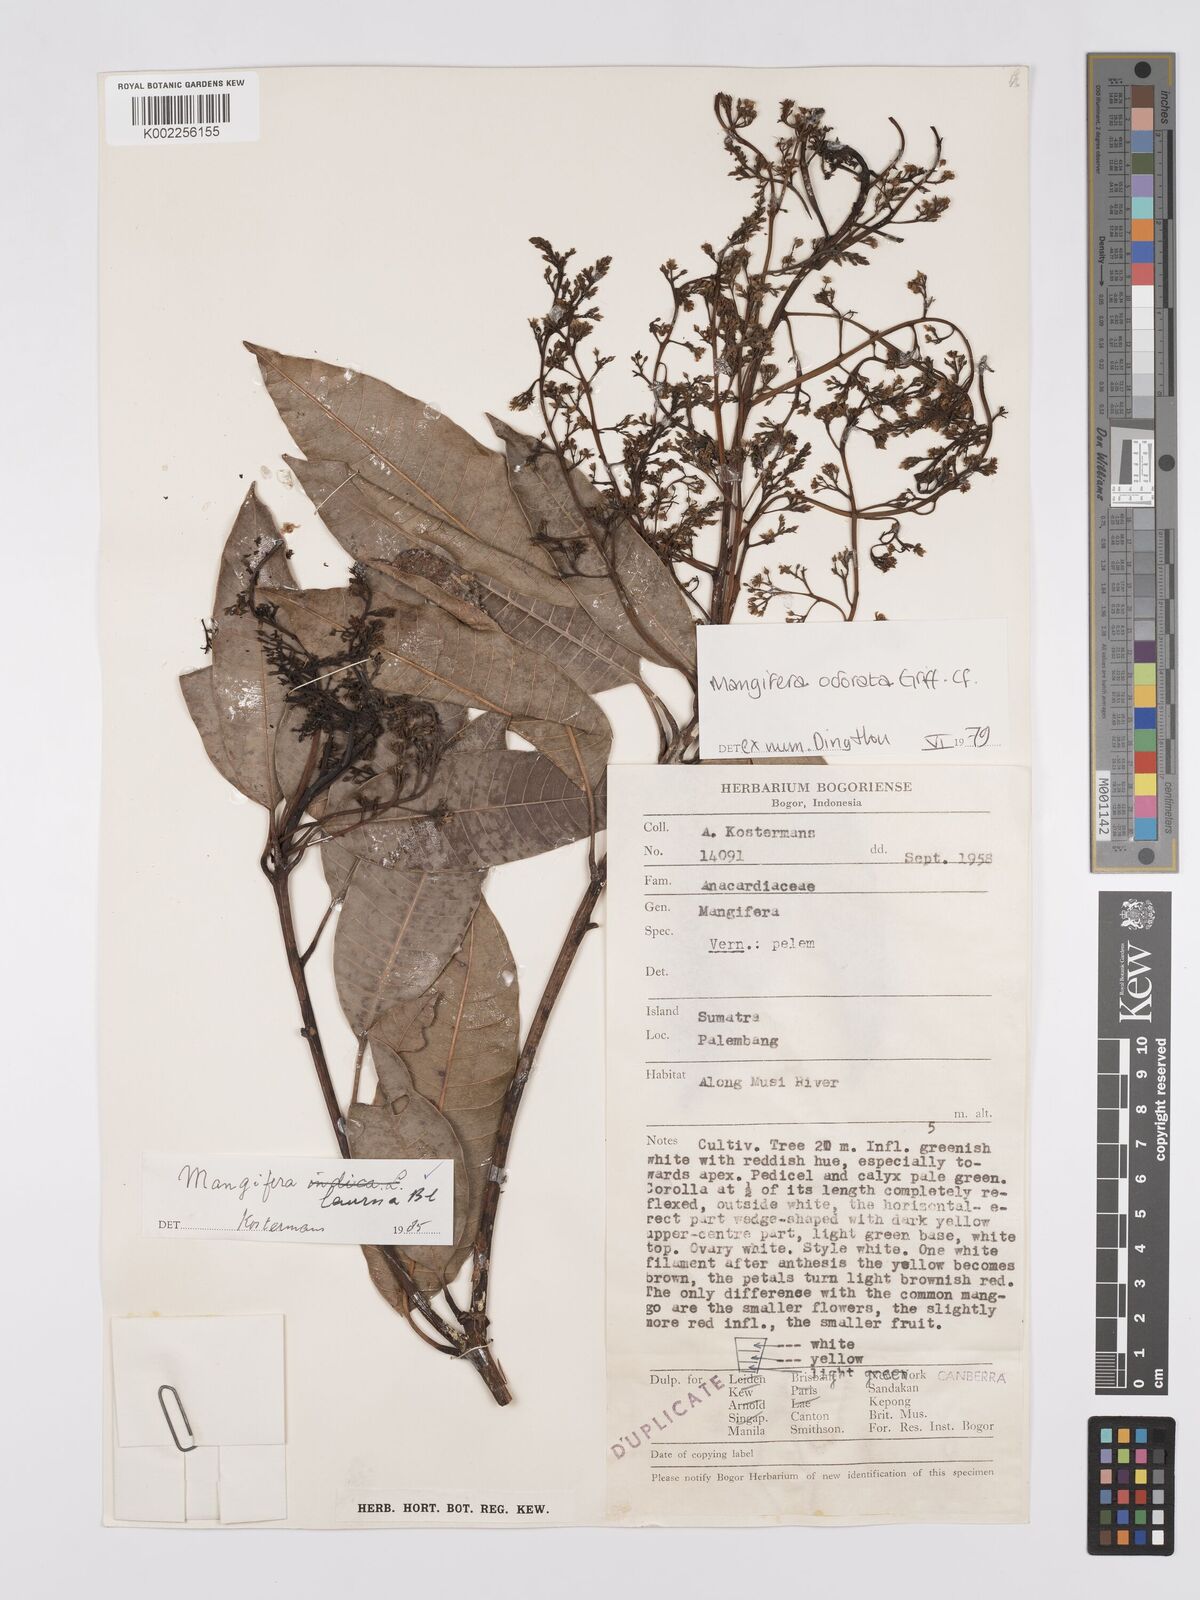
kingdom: Plantae
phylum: Tracheophyta
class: Magnoliopsida
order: Sapindales
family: Anacardiaceae
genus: Mangifera
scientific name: Mangifera laurina
